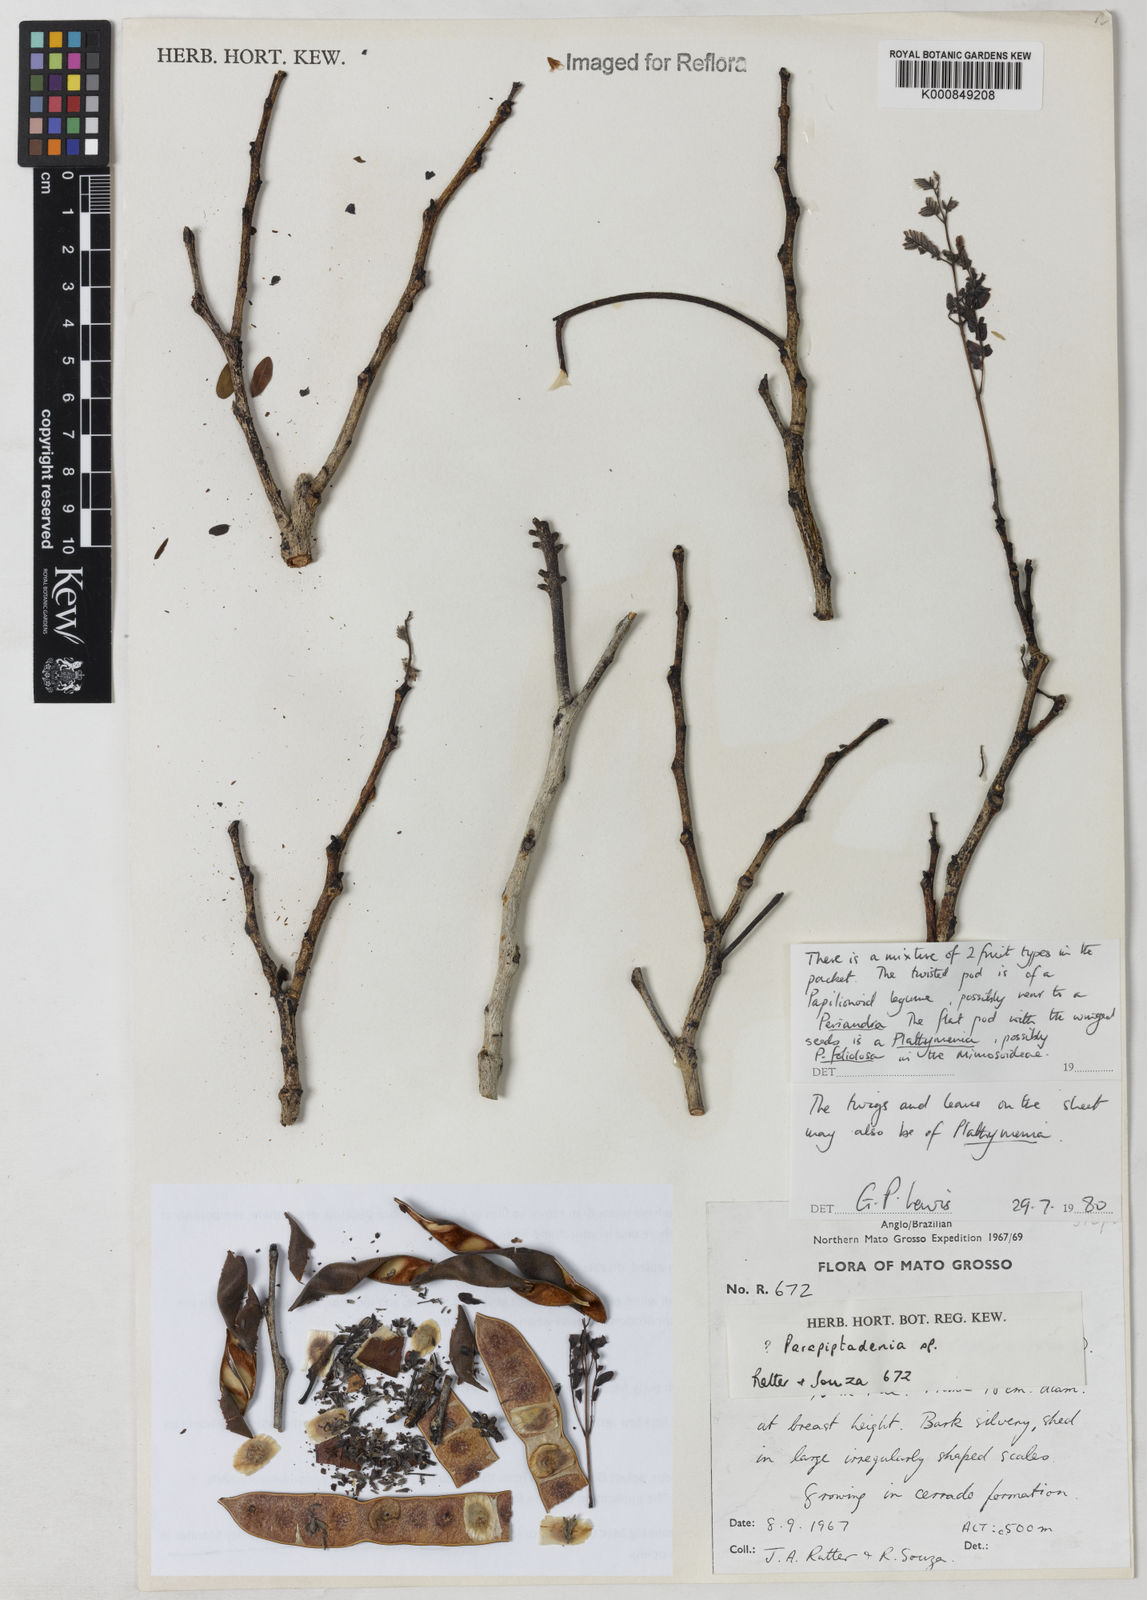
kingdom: Plantae
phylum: Tracheophyta
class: Magnoliopsida
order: Fabales
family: Fabaceae
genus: Plathymenia
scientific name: Plathymenia reticulata
